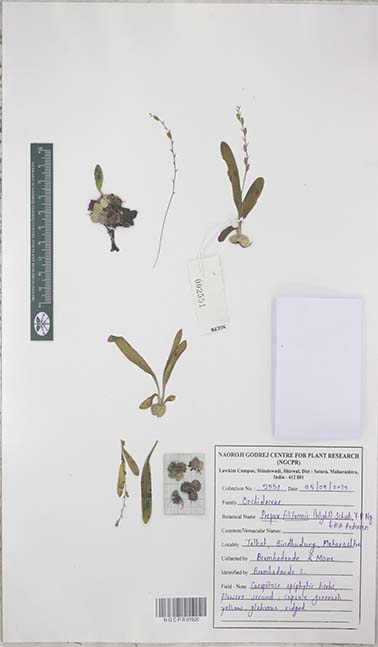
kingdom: Plantae
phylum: Tracheophyta
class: Liliopsida
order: Asparagales
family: Orchidaceae
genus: Porpax
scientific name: Porpax filiformis
